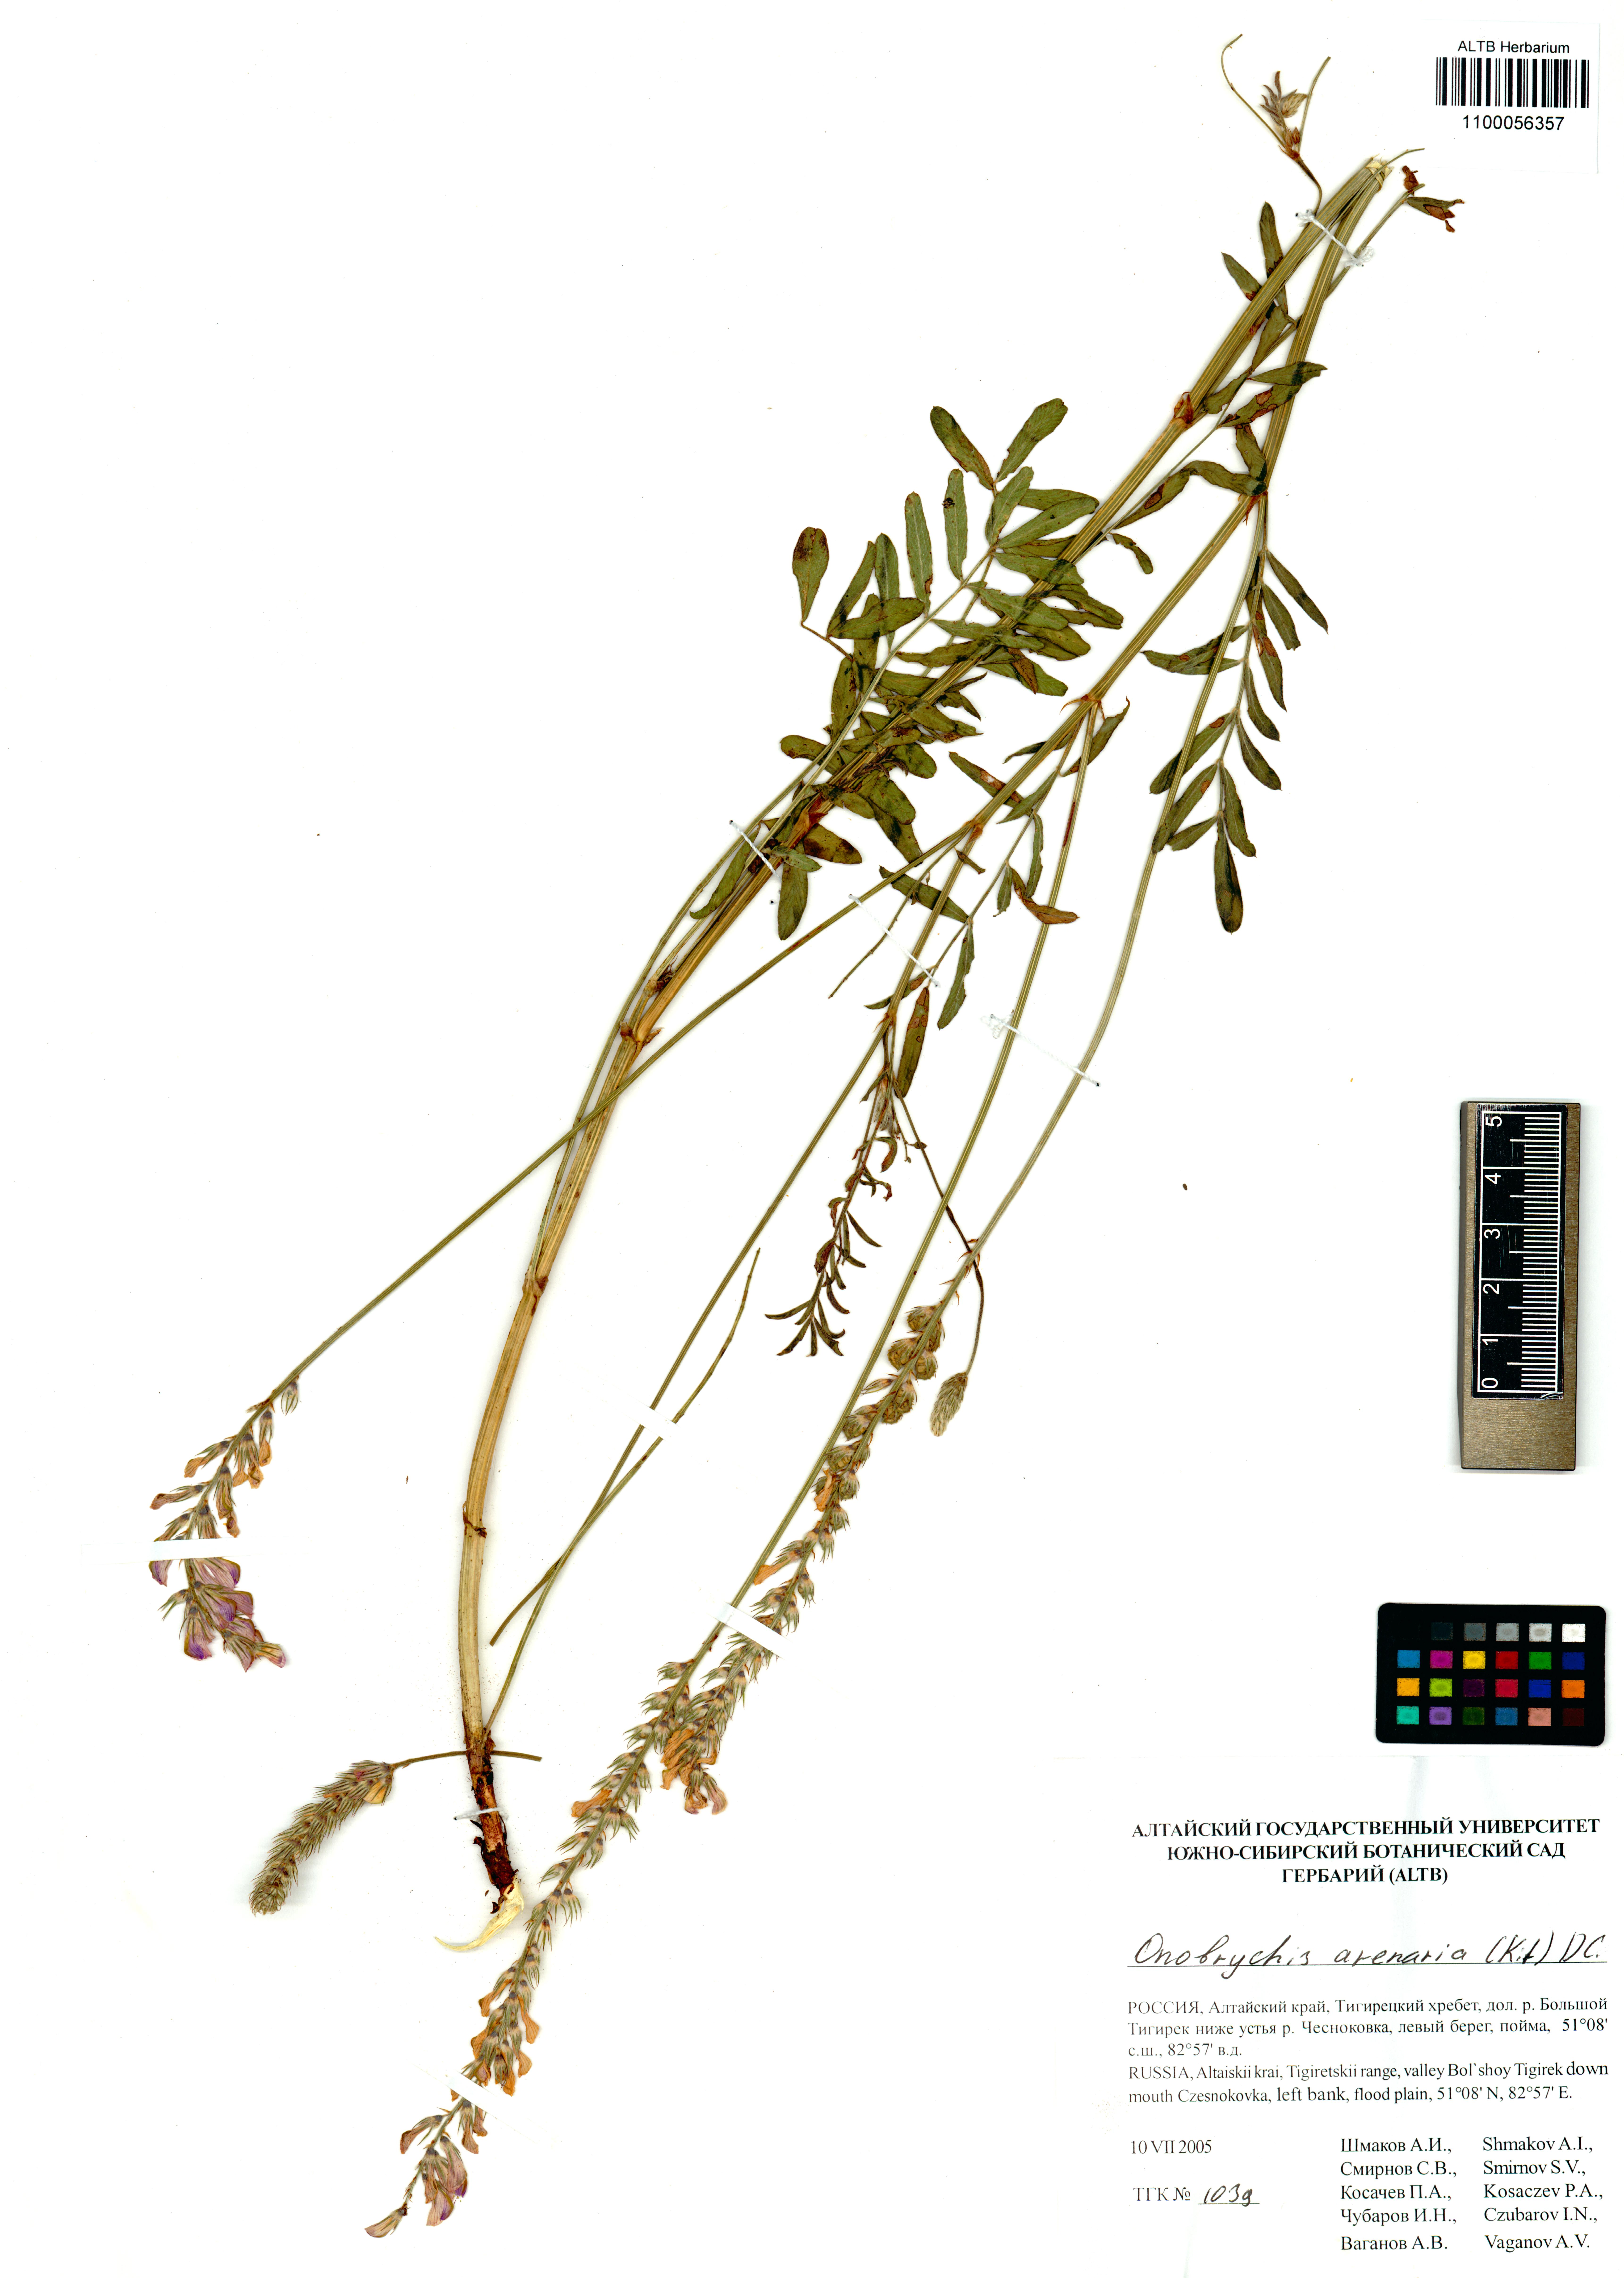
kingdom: Plantae
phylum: Tracheophyta
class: Magnoliopsida
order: Fabales
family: Fabaceae
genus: Onobrychis
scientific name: Onobrychis arenaria
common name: Sand esparcet
